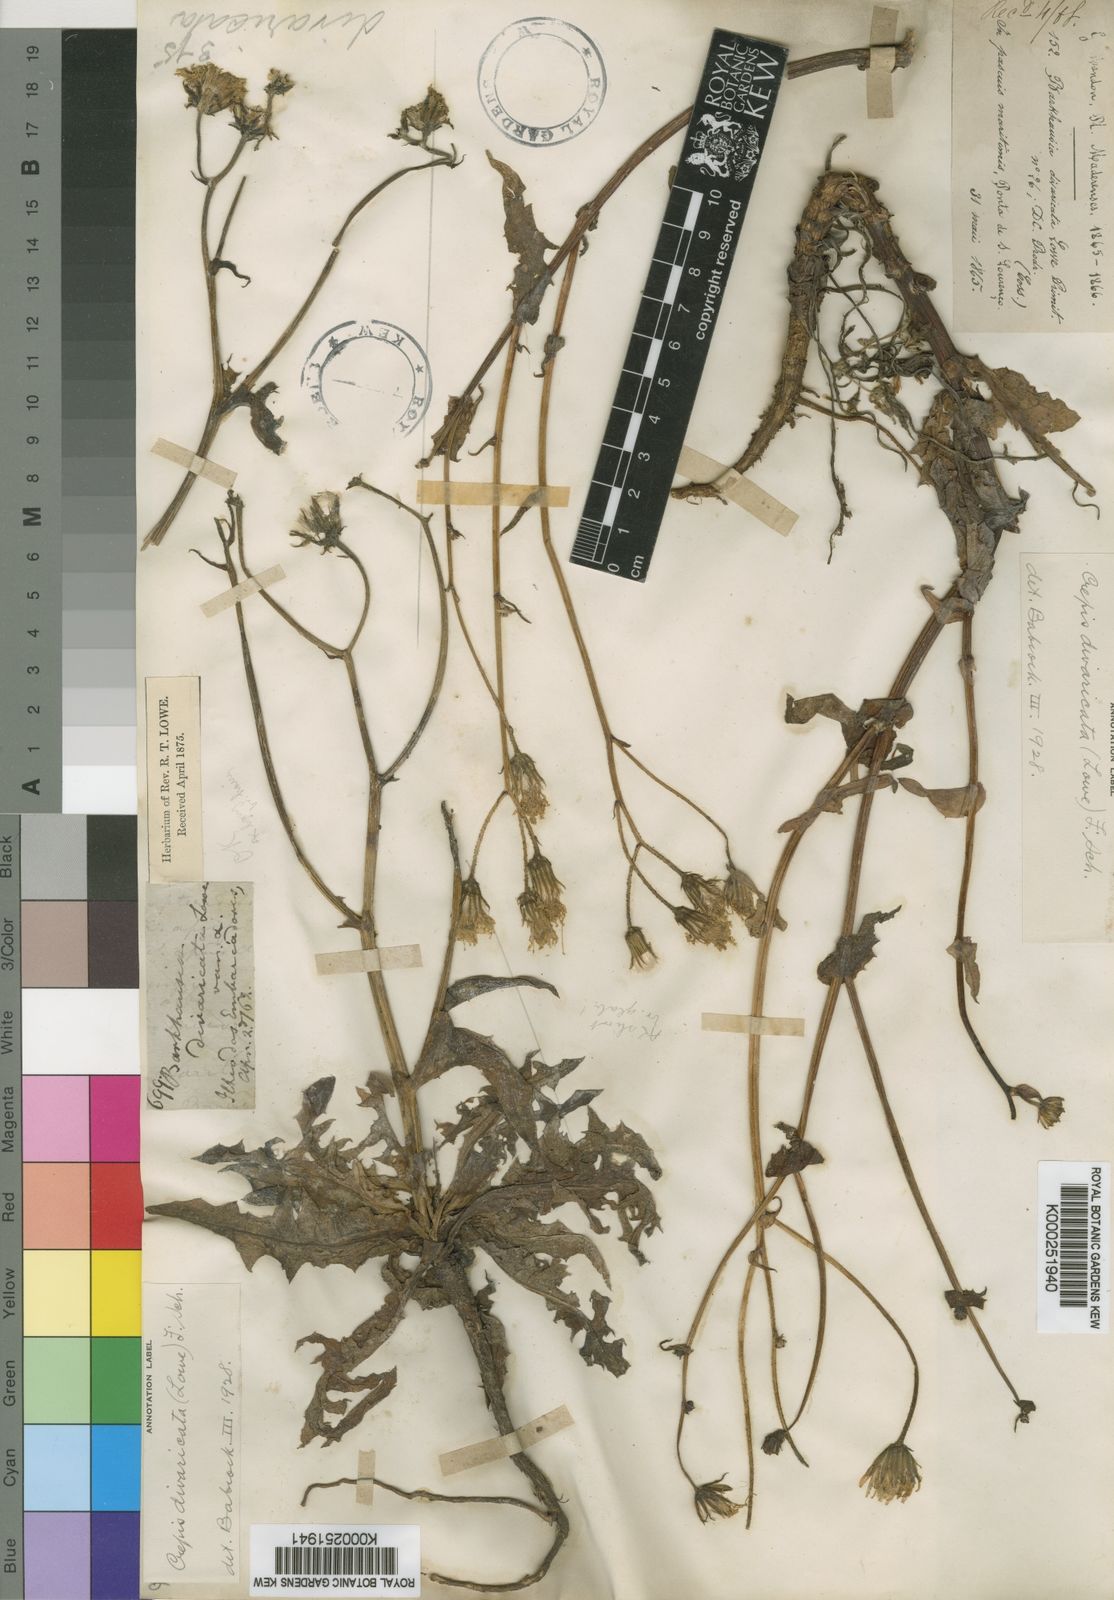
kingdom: Plantae
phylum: Tracheophyta
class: Magnoliopsida
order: Asterales
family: Asteraceae
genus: Crepis
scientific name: Crepis divaricata
